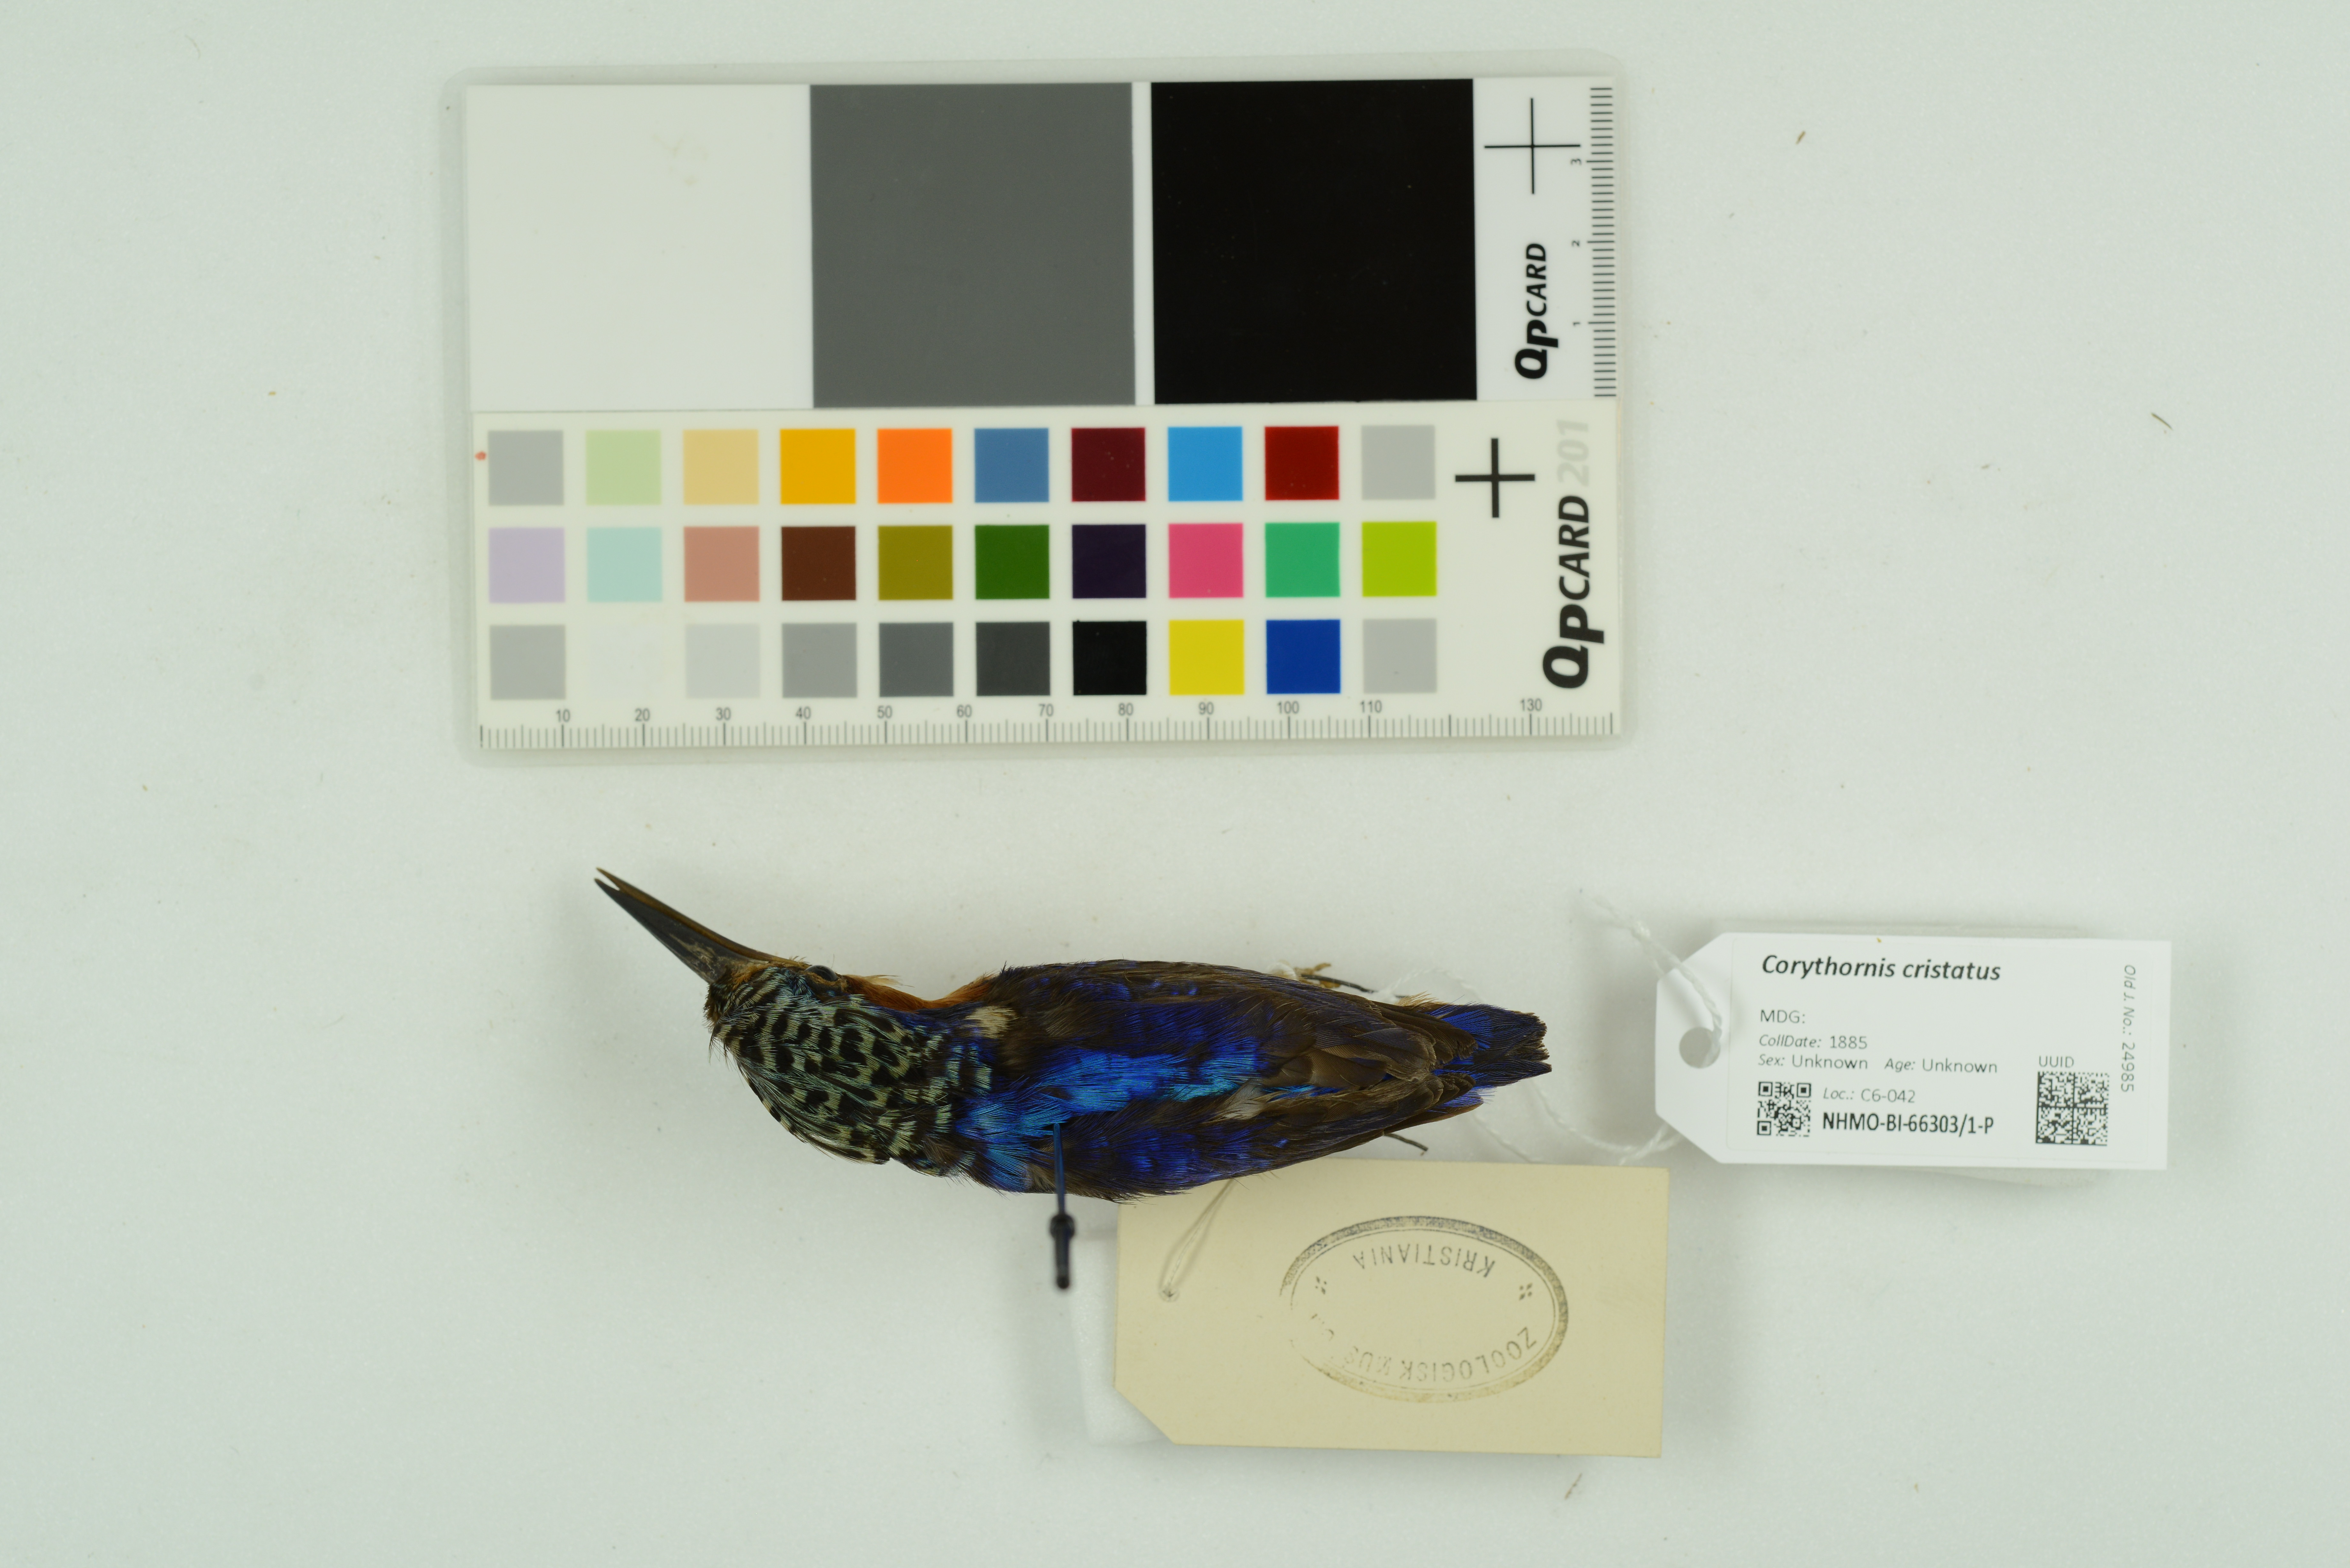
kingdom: Animalia
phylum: Chordata
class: Aves
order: Coraciiformes
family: Alcedinidae
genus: Corythornis
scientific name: Corythornis cristatus
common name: Malachite kingfisher
